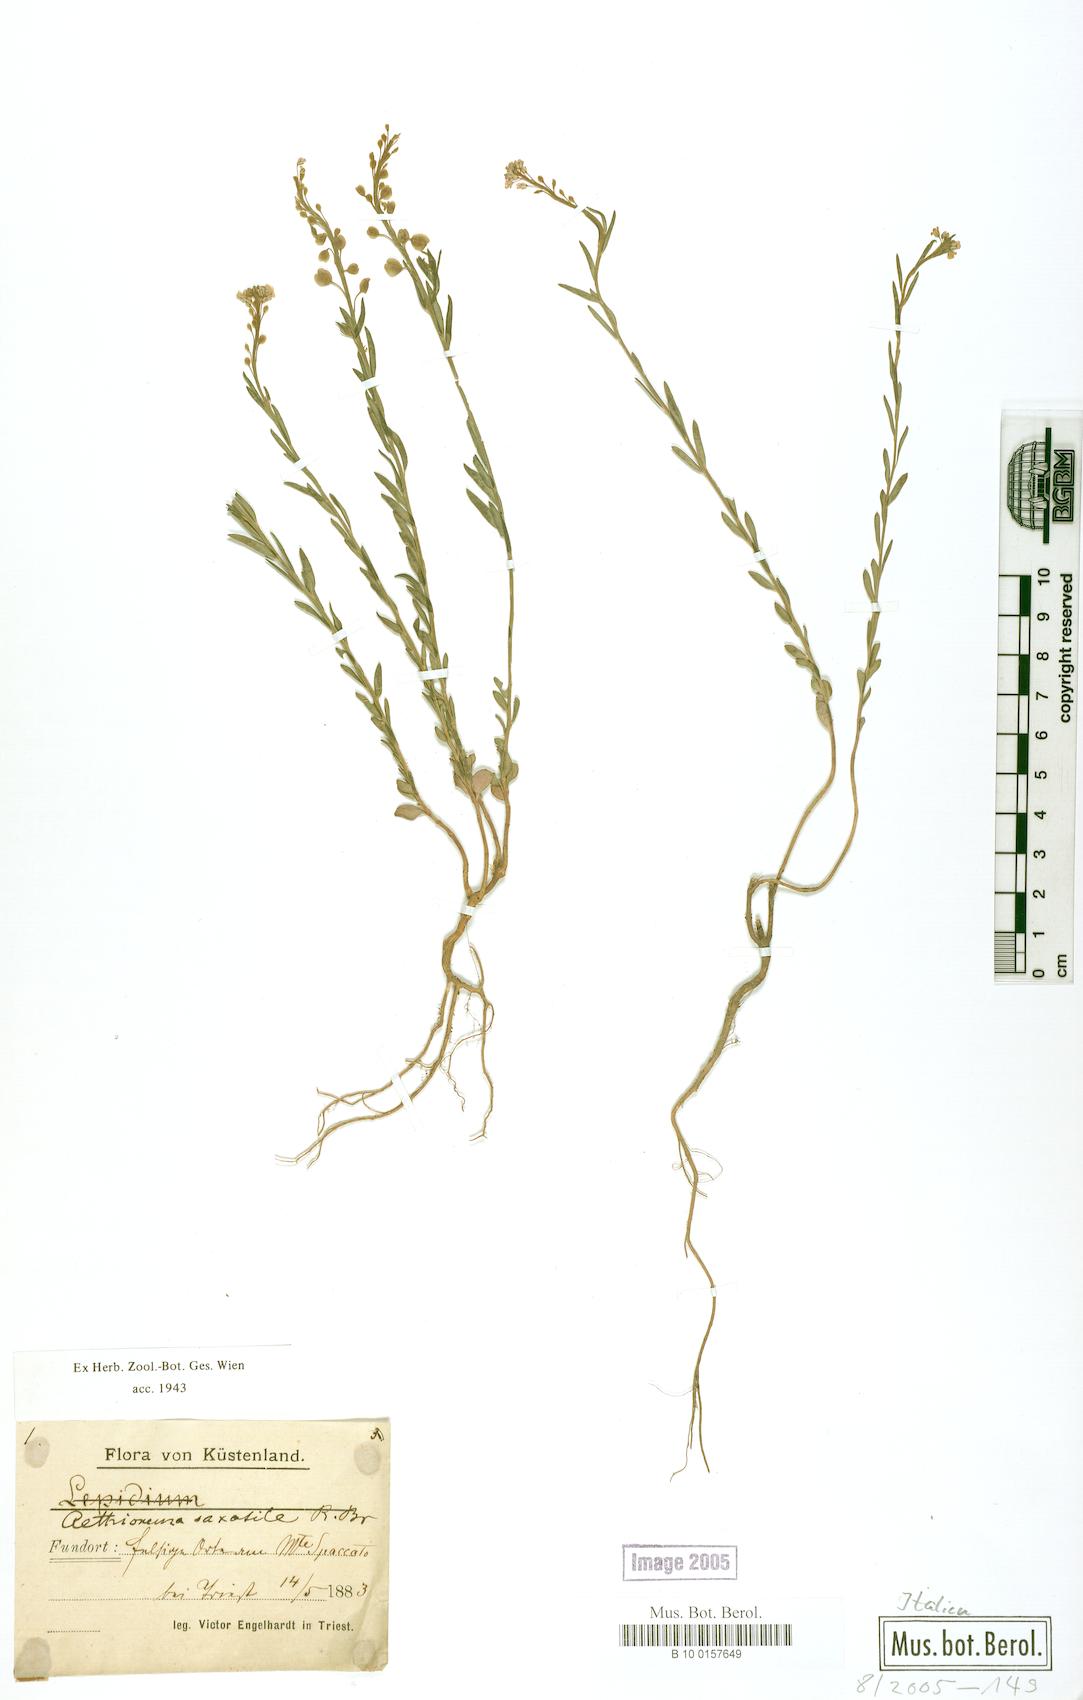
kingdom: Plantae
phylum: Tracheophyta
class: Magnoliopsida
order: Brassicales
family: Brassicaceae
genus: Aethionema
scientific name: Aethionema saxatile
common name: Burnt candytuft
